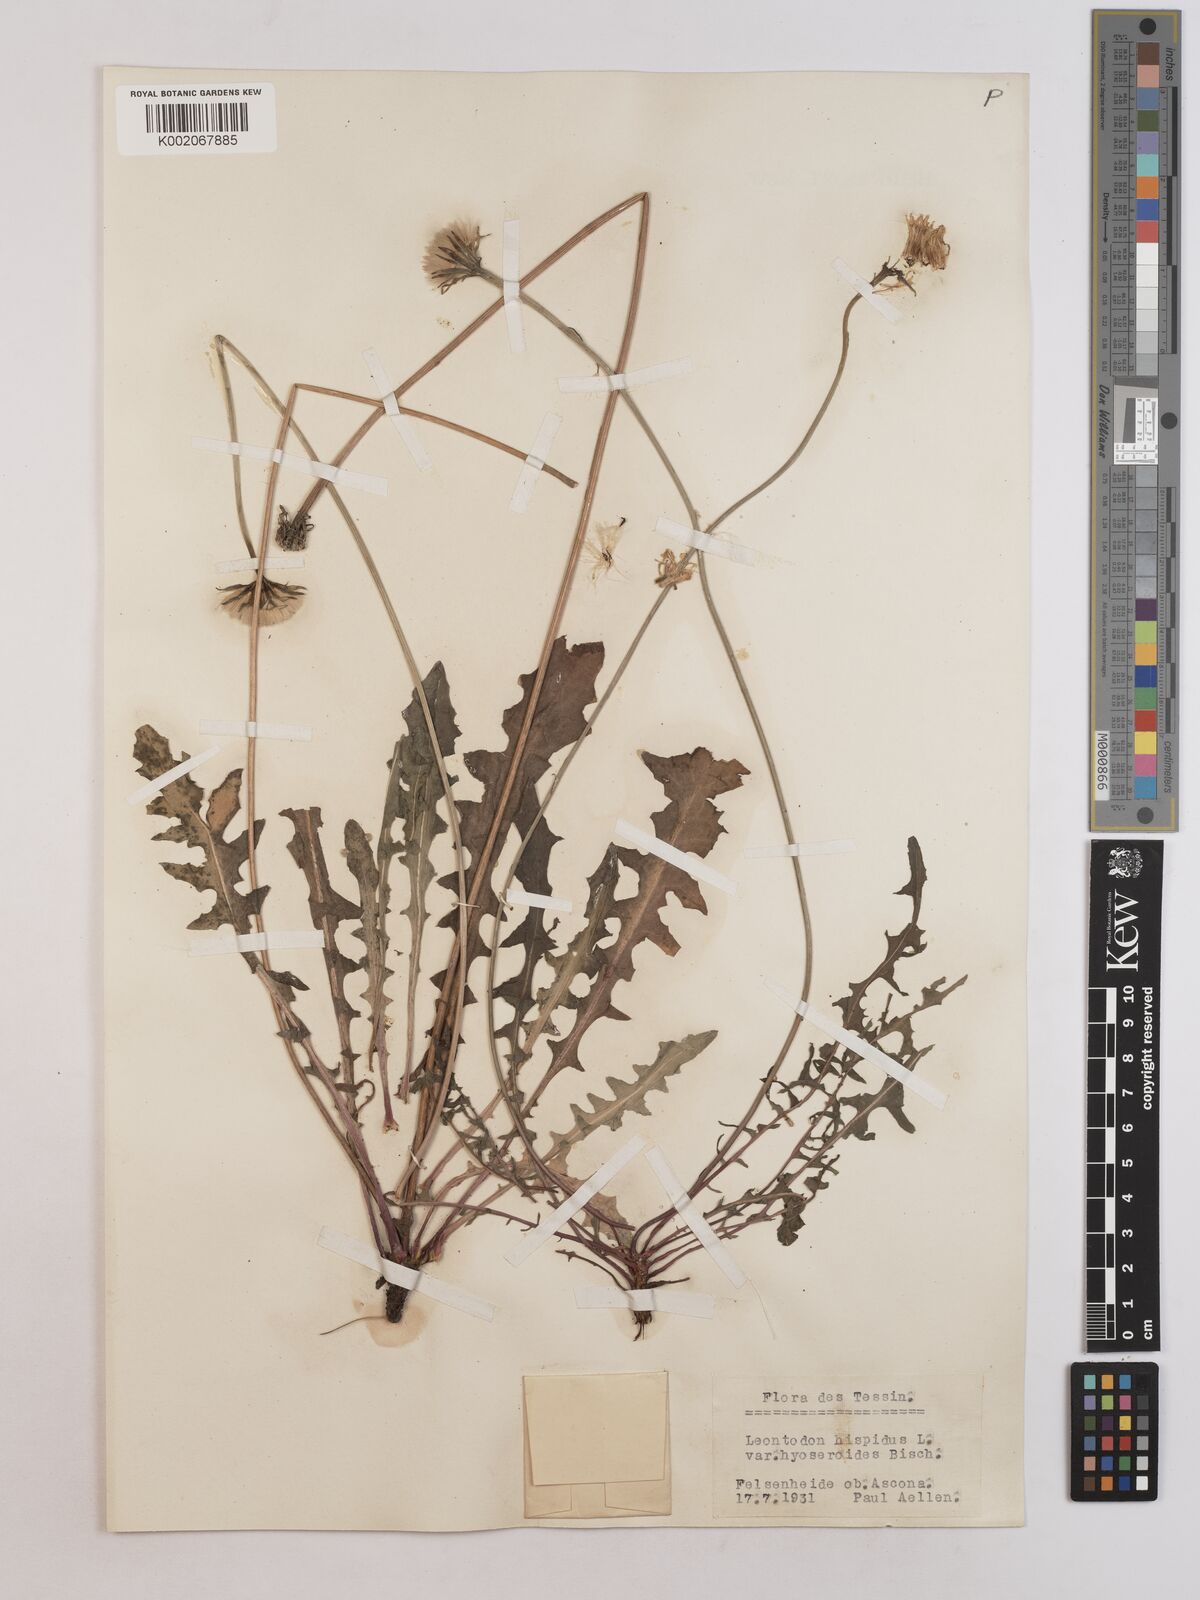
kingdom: Plantae
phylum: Tracheophyta
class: Magnoliopsida
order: Asterales
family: Asteraceae
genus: Leontodon
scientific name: Leontodon hispidus
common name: Rough hawkbit
